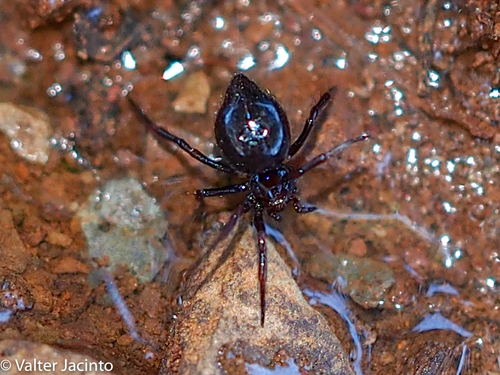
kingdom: Animalia
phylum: Arthropoda
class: Arachnida
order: Araneae
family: Theridiidae
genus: Euryopis
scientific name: Euryopis episinoides
